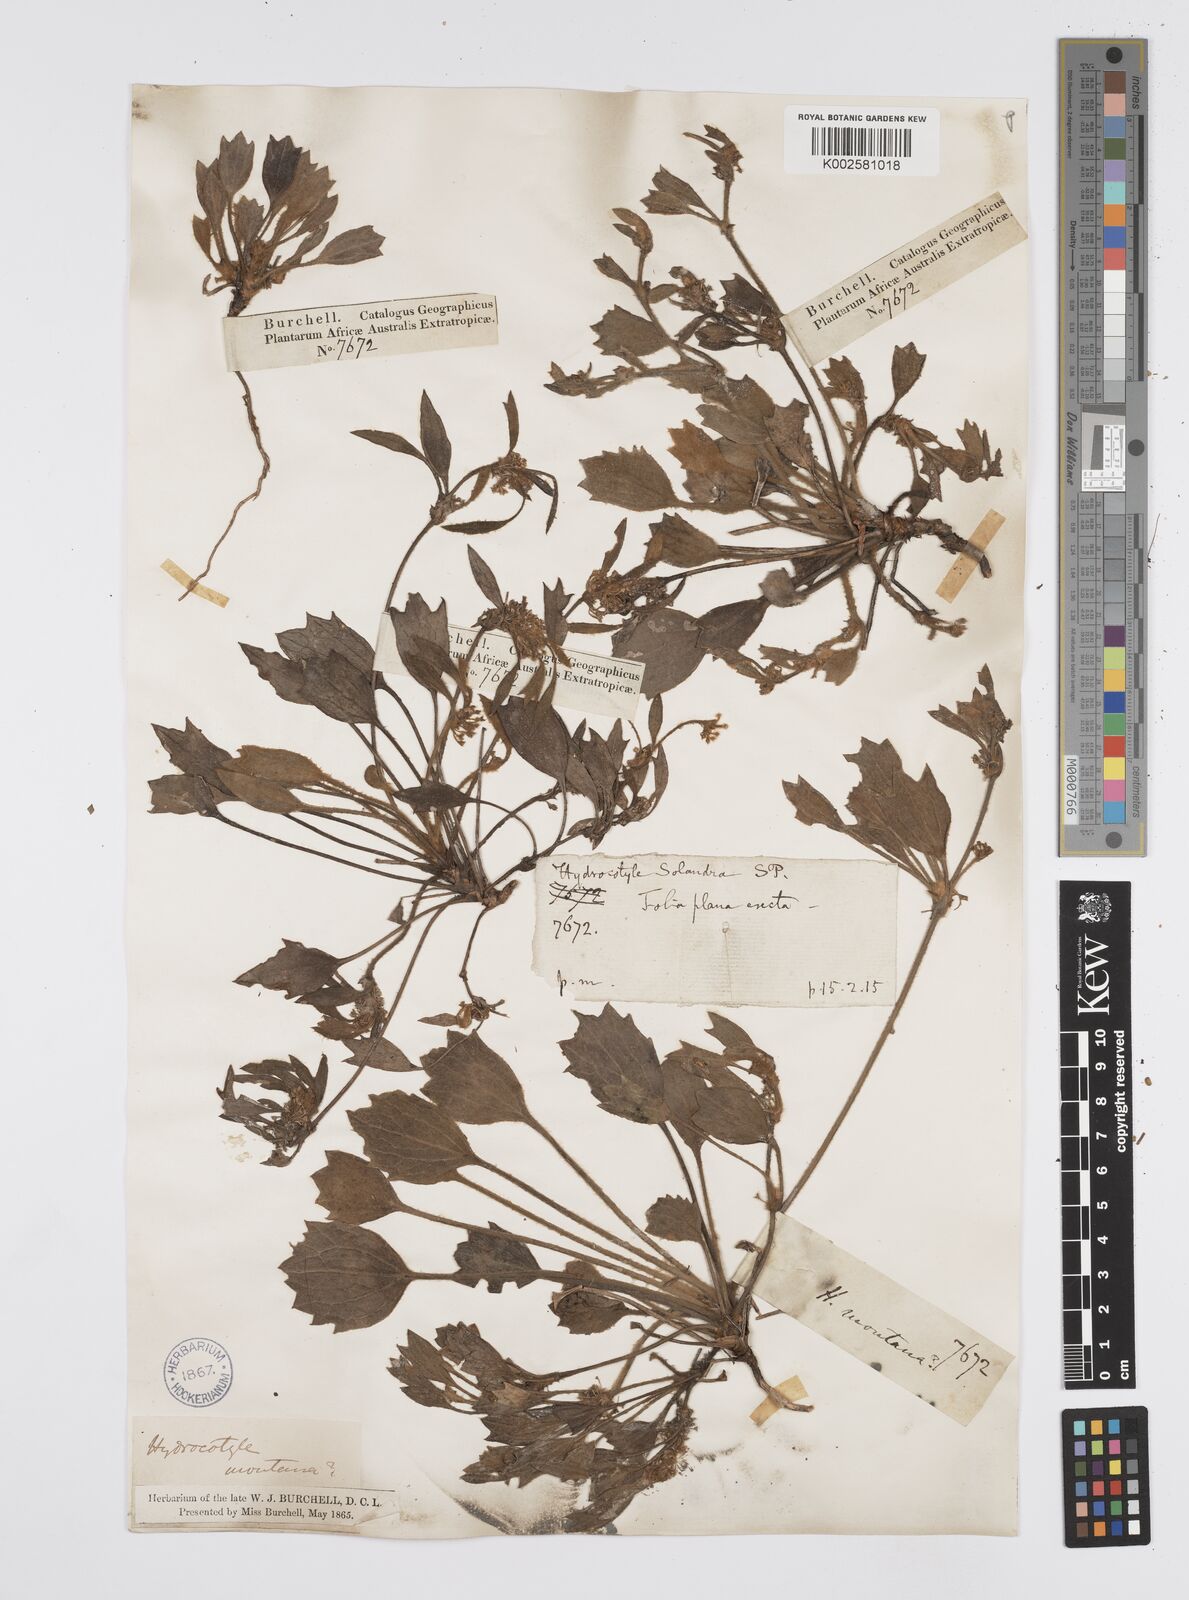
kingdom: Plantae
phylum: Tracheophyta
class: Magnoliopsida
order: Apiales
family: Apiaceae
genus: Centella
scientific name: Centella difformis
